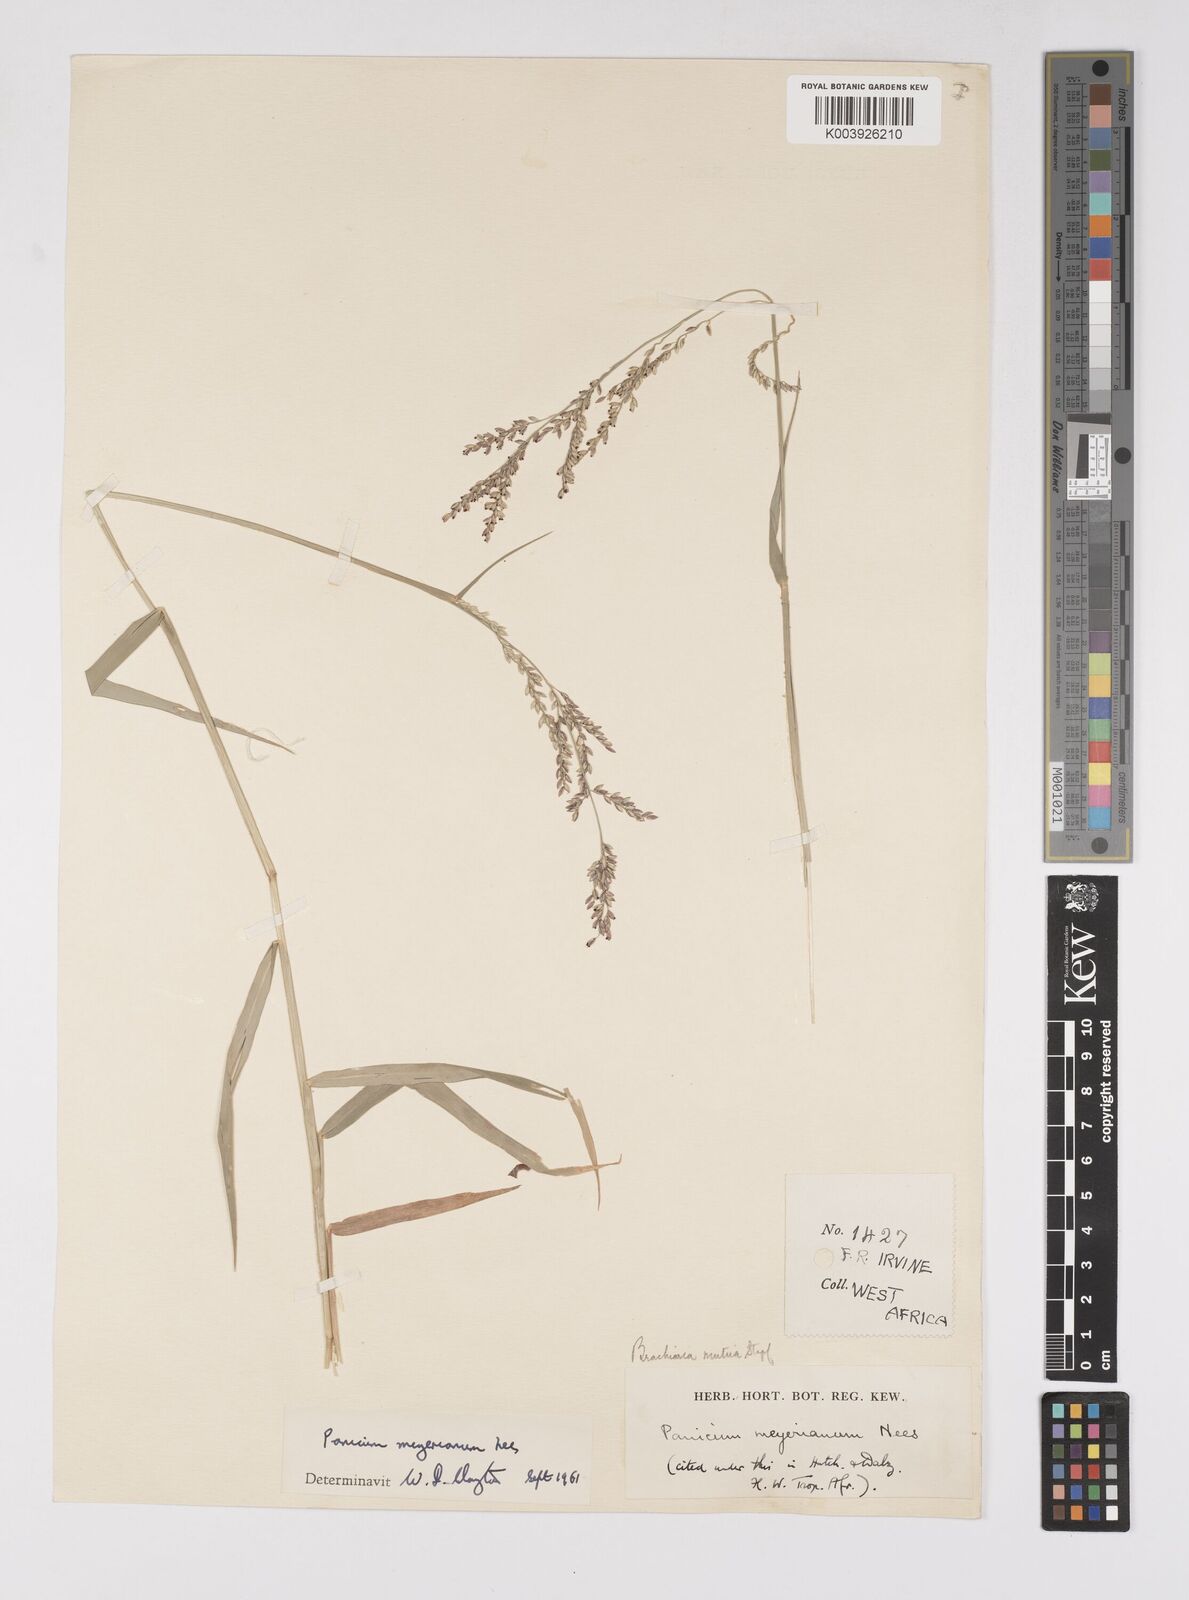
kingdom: Plantae
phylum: Tracheophyta
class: Liliopsida
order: Poales
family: Poaceae
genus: Eriochloa
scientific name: Eriochloa meyeriana
